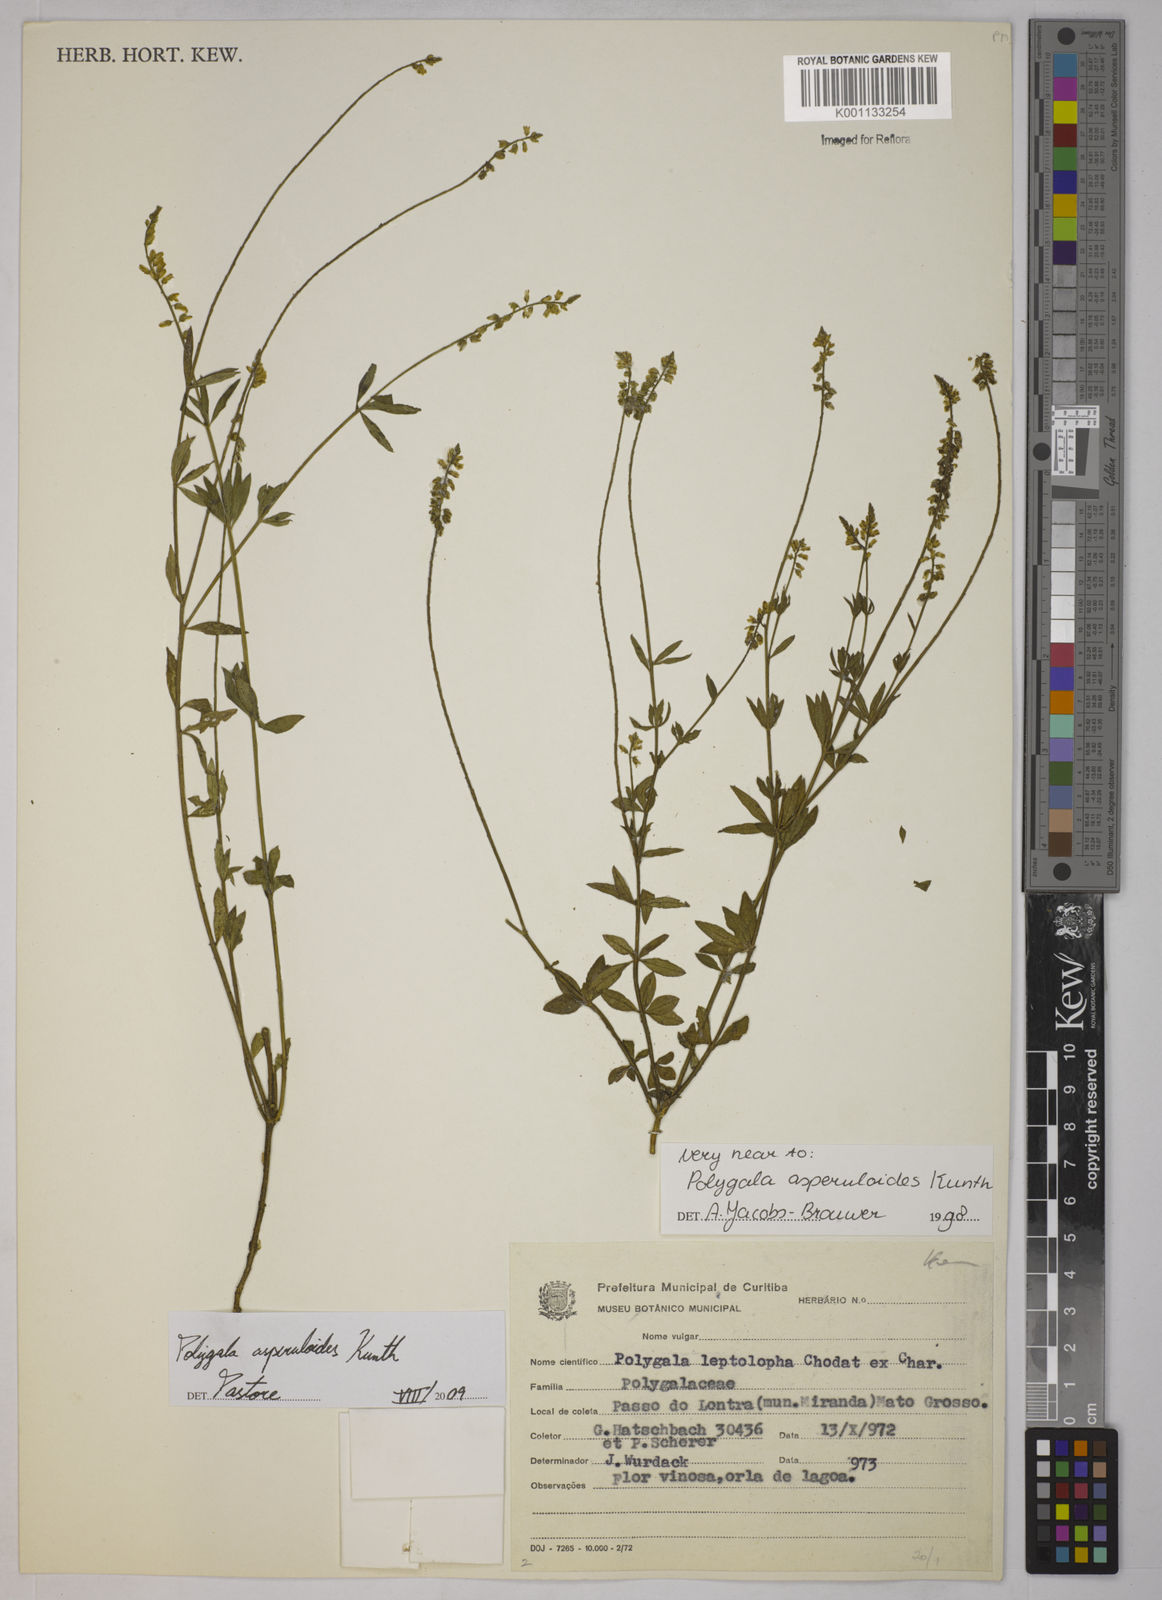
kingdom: Plantae
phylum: Tracheophyta
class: Magnoliopsida
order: Fabales
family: Polygalaceae
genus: Polygala
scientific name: Polygala asperuloides
